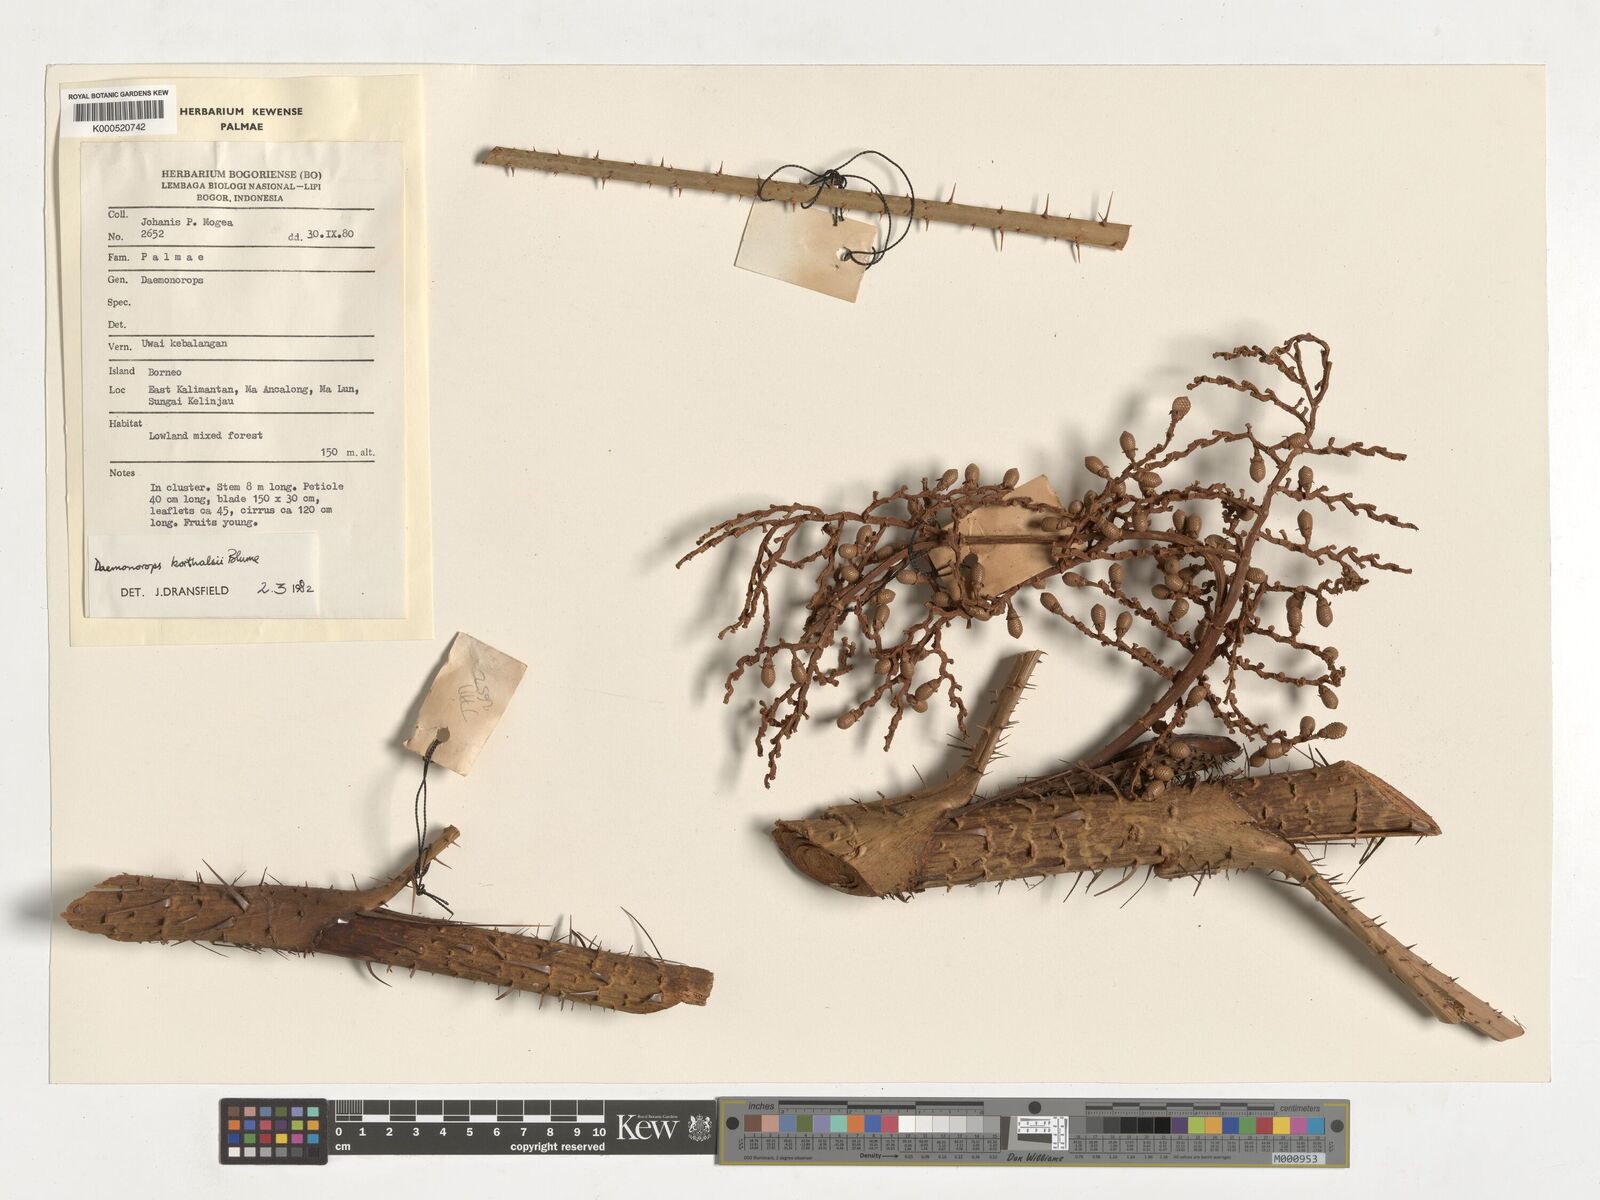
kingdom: Plantae
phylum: Tracheophyta
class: Liliopsida
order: Arecales
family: Arecaceae
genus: Calamus
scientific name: Calamus hirsutus
